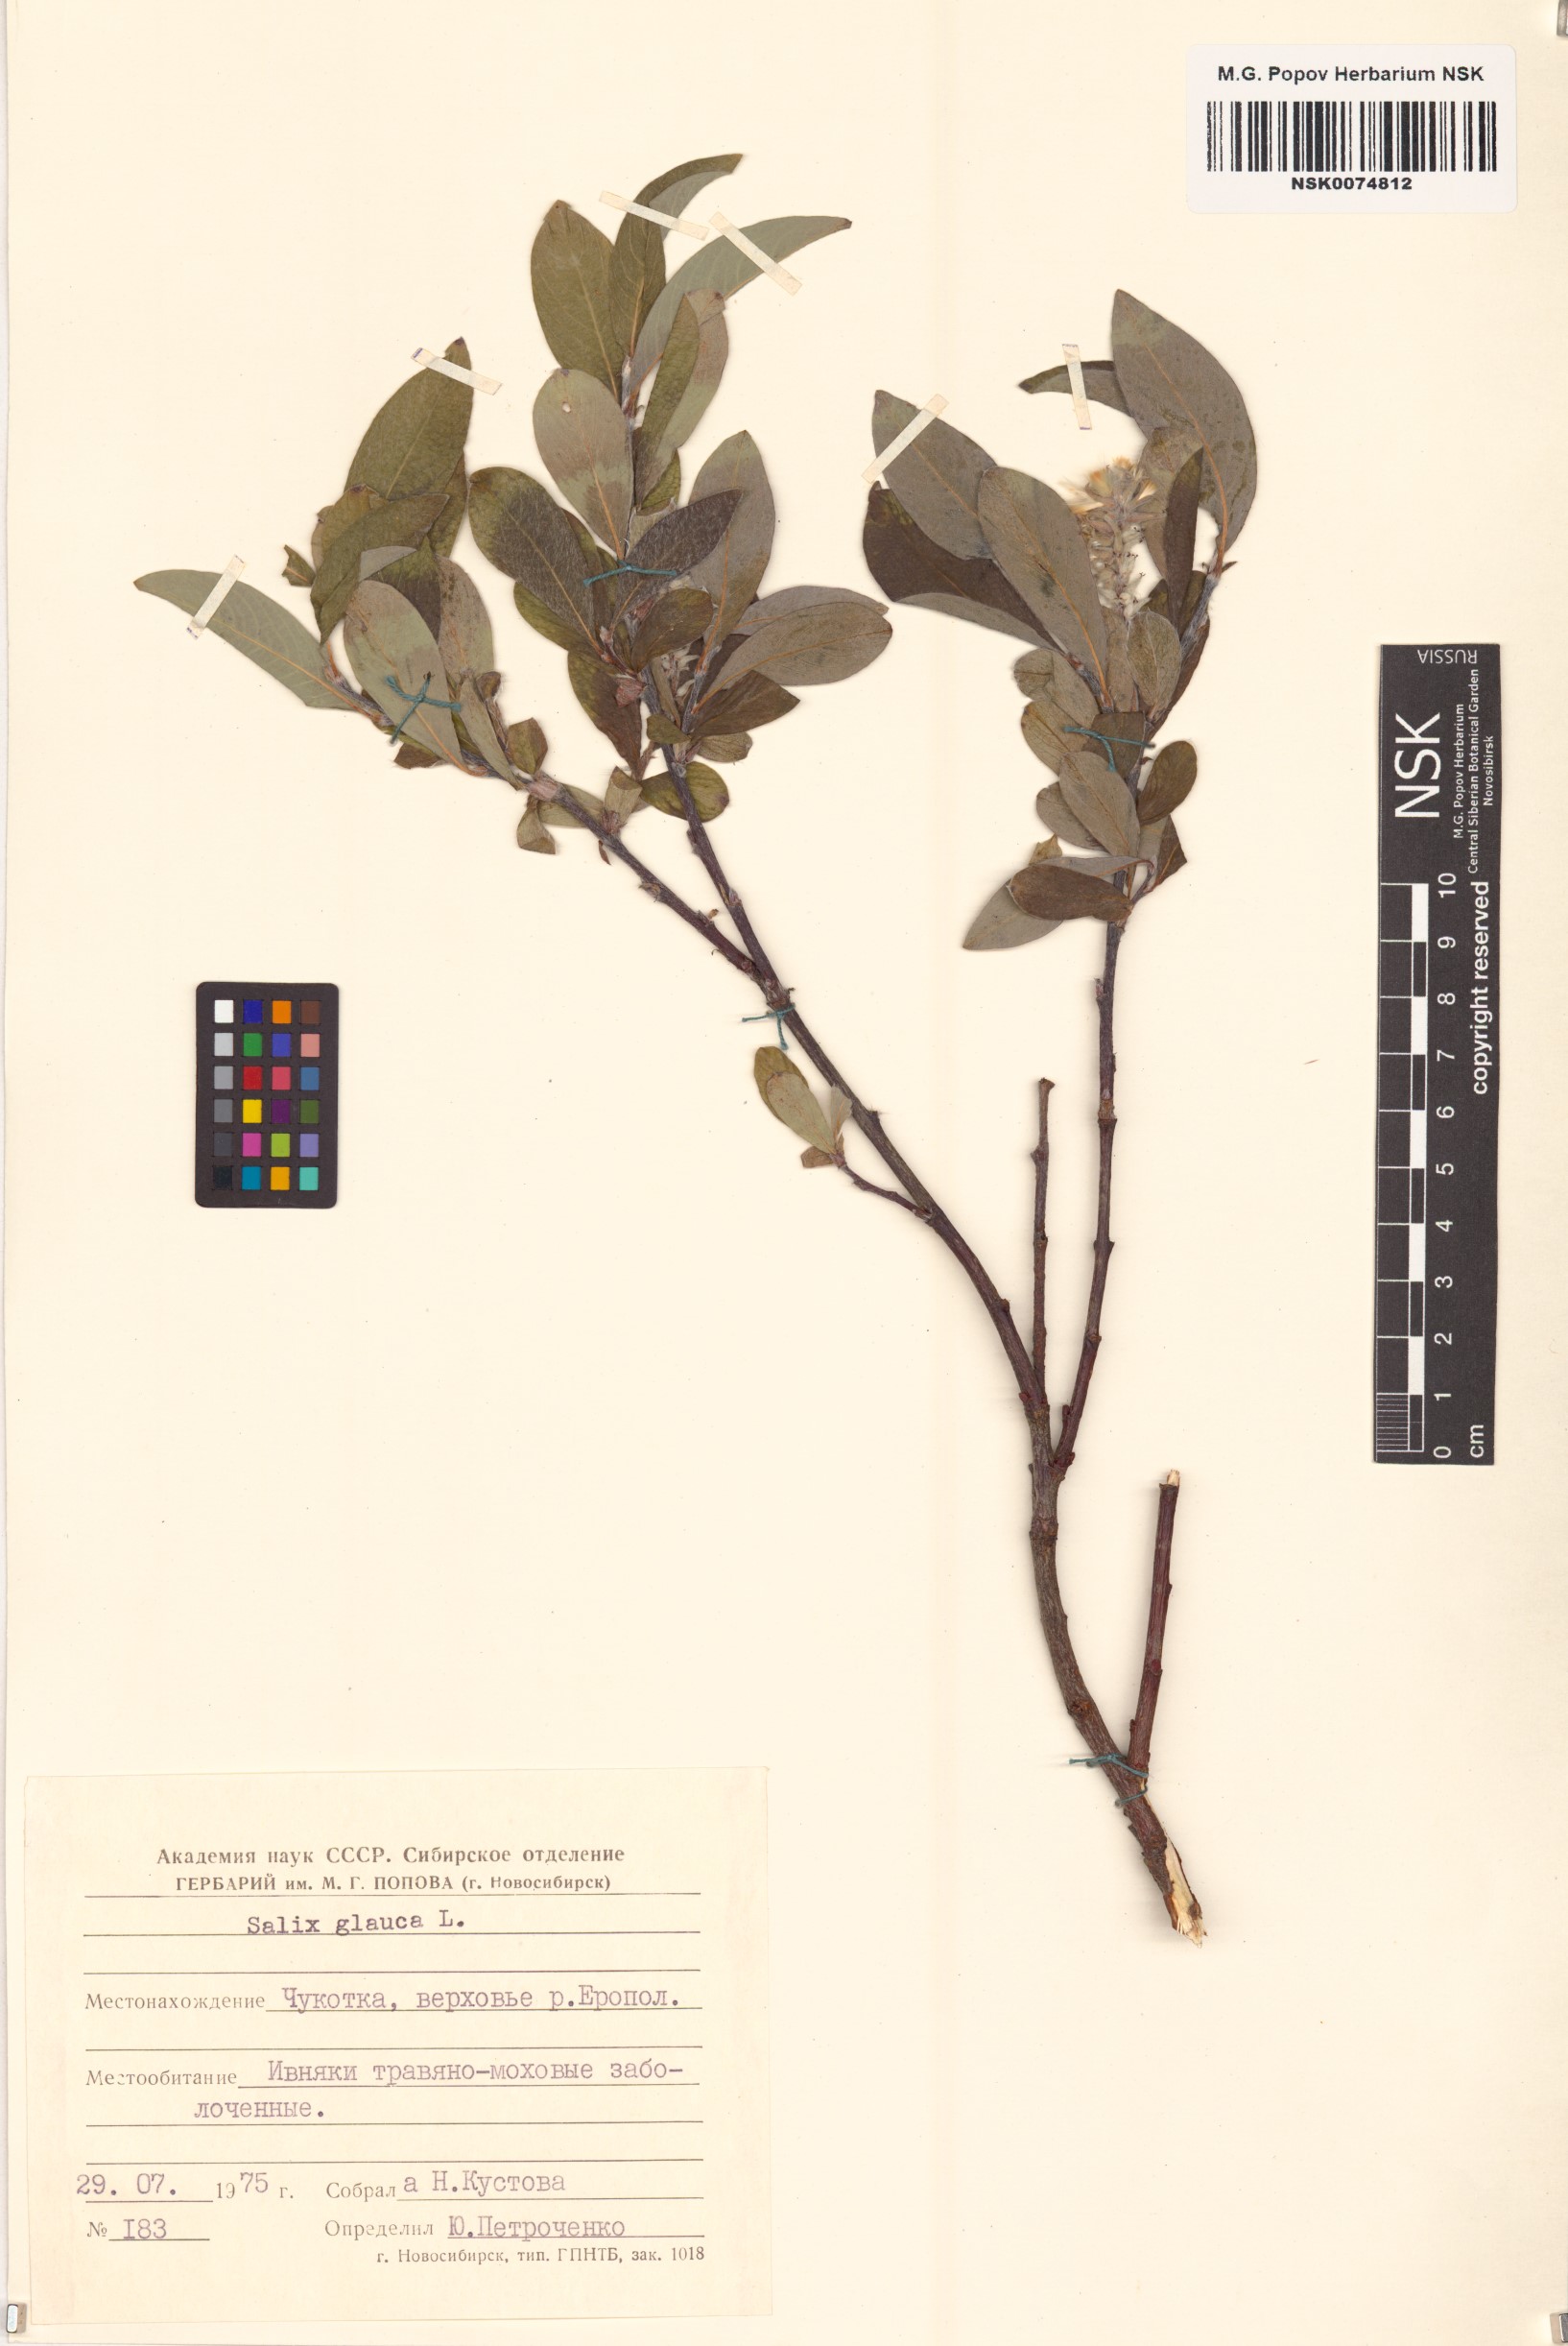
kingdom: Plantae
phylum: Tracheophyta
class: Magnoliopsida
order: Malpighiales
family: Salicaceae
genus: Salix
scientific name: Salix glauca
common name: Glaucous willow
